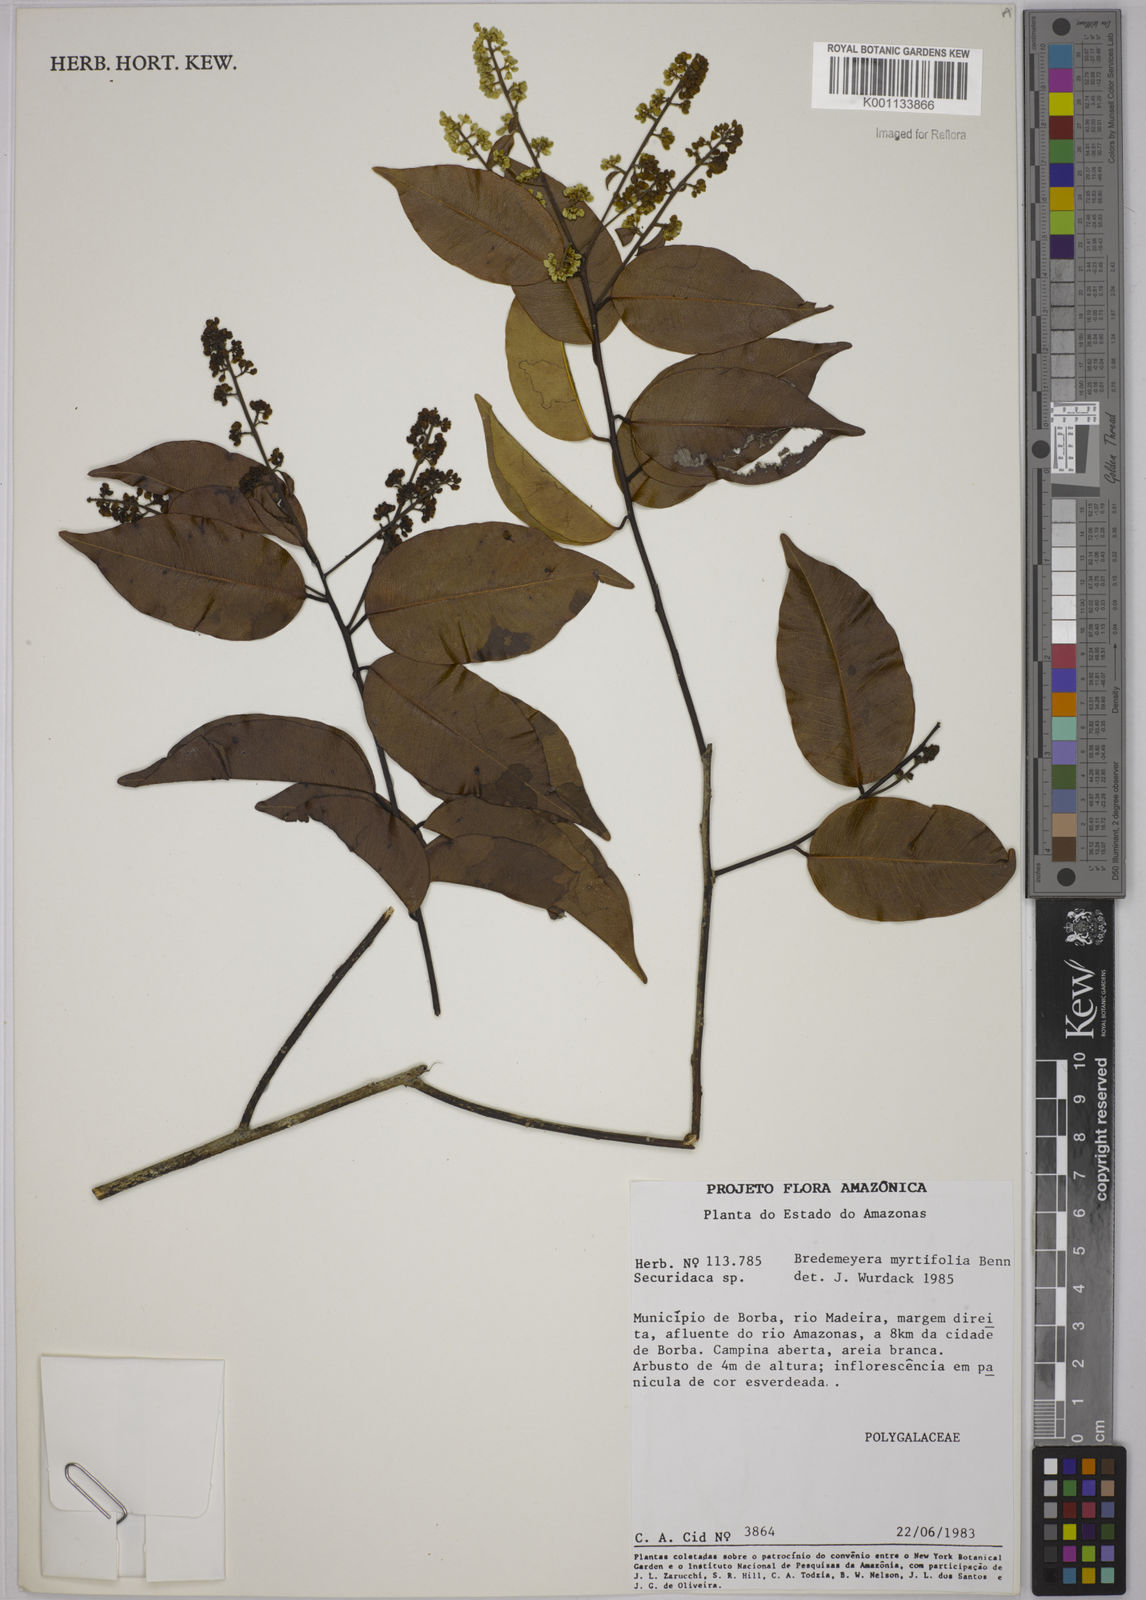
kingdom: Plantae
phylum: Tracheophyta
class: Magnoliopsida
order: Fabales
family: Polygalaceae
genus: Bredemeyera
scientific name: Bredemeyera
